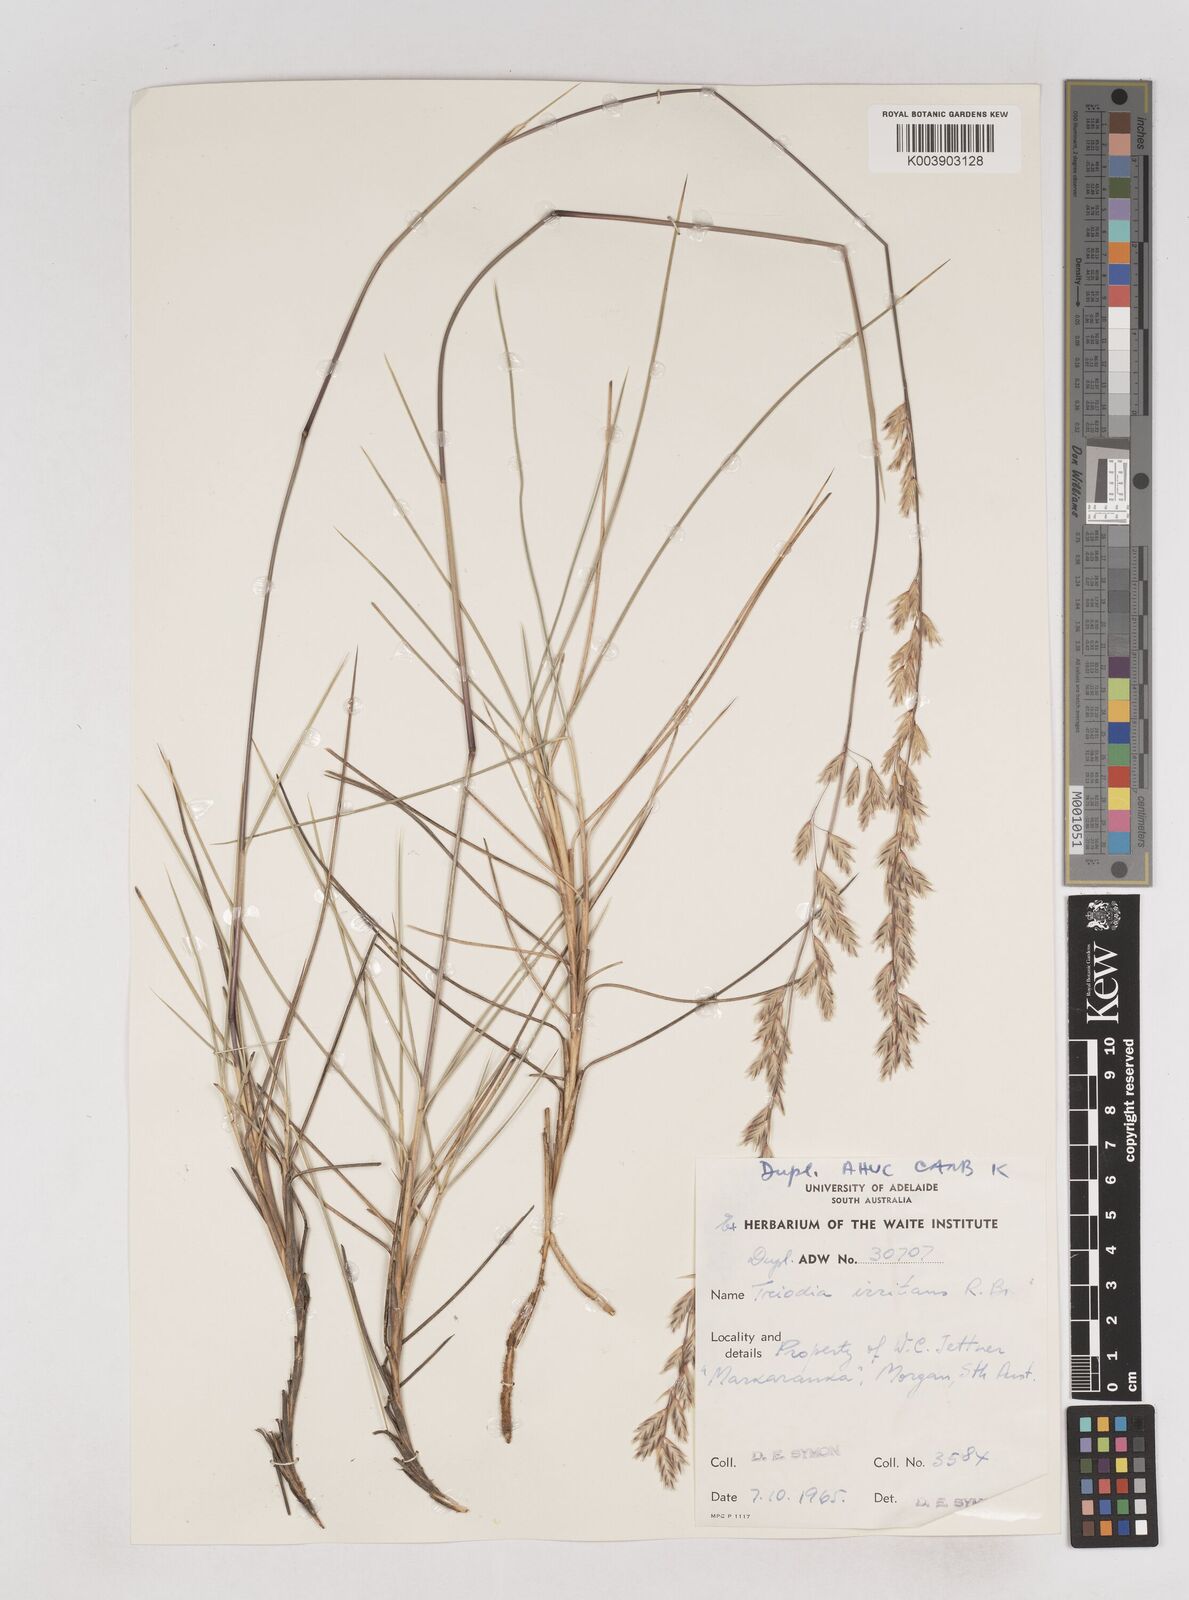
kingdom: Plantae
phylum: Tracheophyta
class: Liliopsida
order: Poales
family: Poaceae
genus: Triodia
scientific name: Triodia irritans
